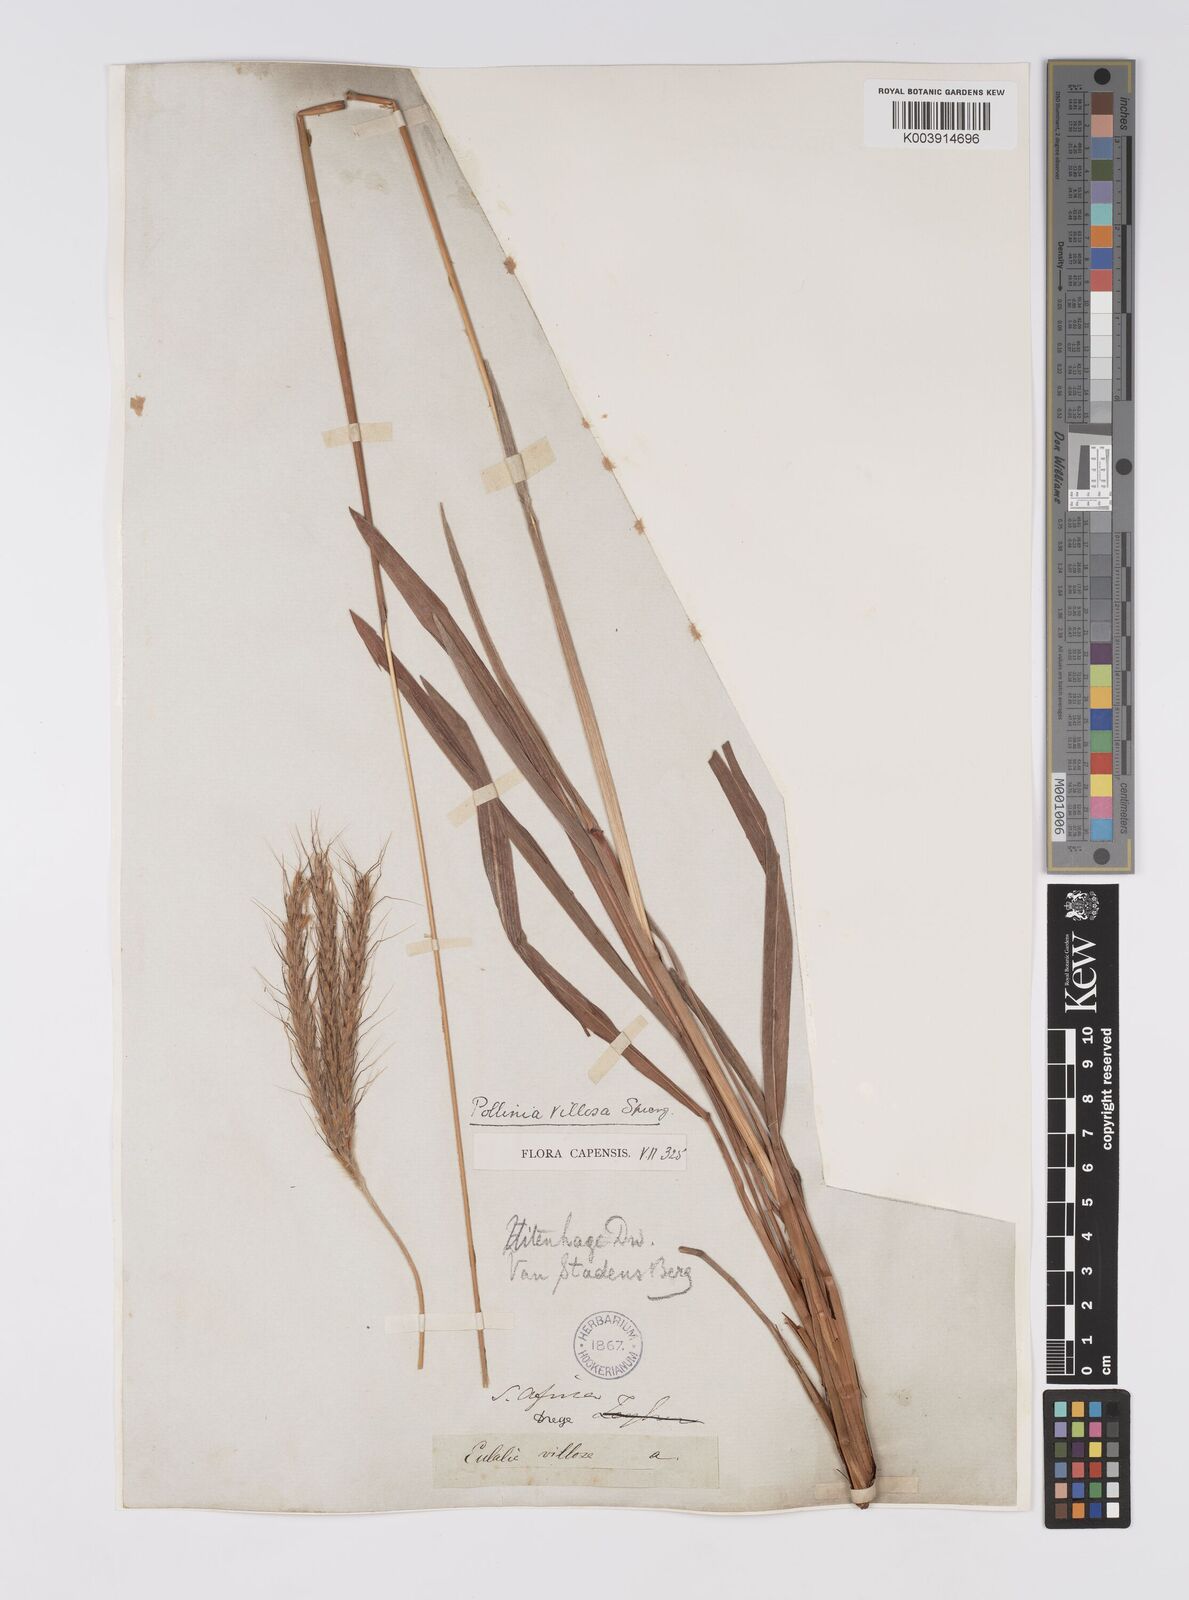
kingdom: Plantae
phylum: Tracheophyta
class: Liliopsida
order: Poales
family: Poaceae
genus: Eulalia
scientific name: Eulalia villosa
